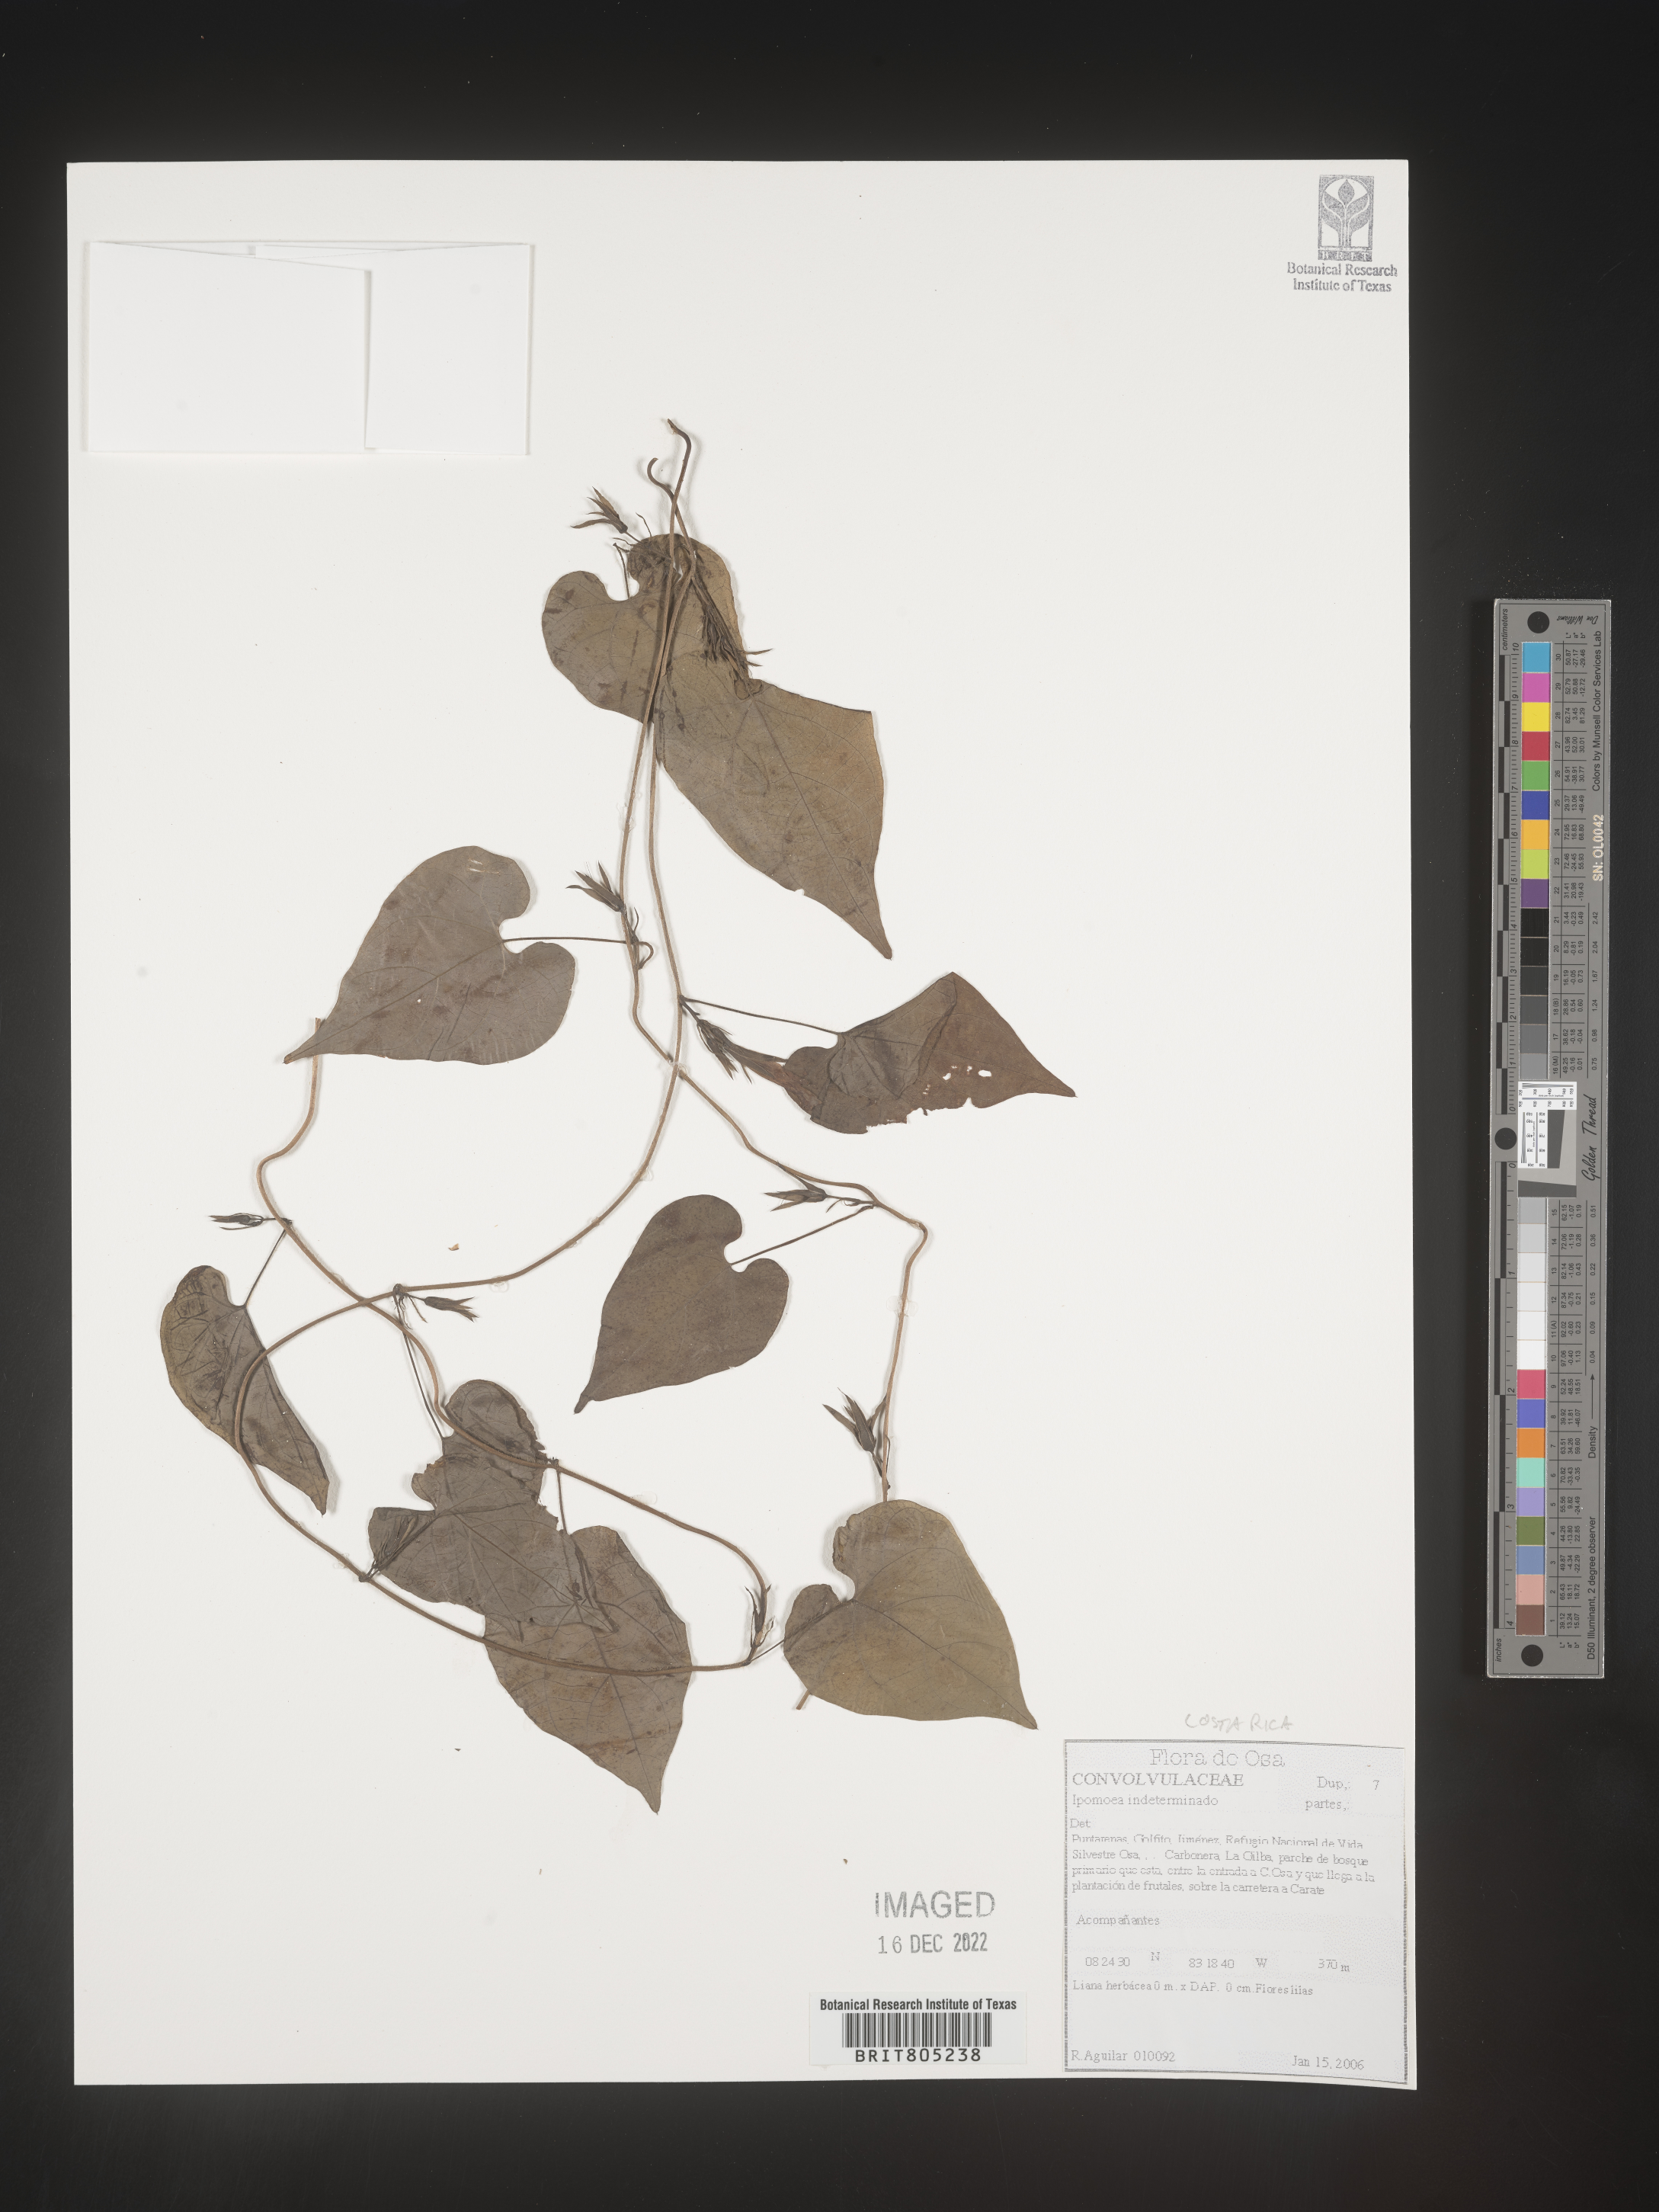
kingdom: Plantae
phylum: Tracheophyta
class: Magnoliopsida
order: Solanales
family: Convolvulaceae
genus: Ipomoea
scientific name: Ipomoea
